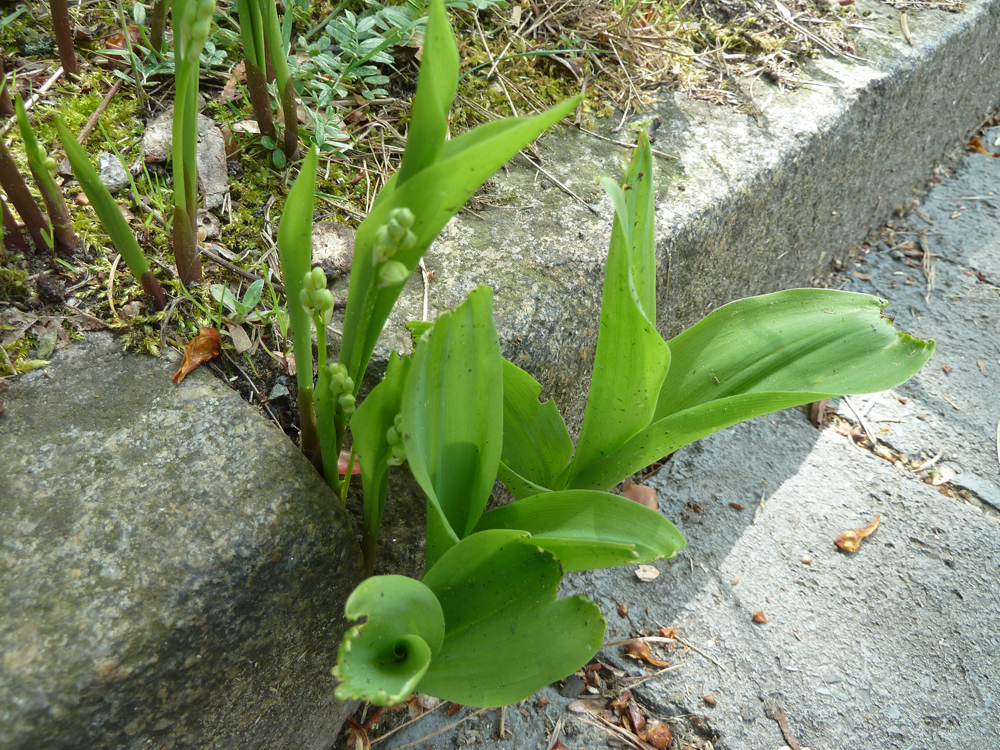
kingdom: Plantae
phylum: Tracheophyta
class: Liliopsida
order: Asparagales
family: Asparagaceae
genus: Convallaria
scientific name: Convallaria majalis
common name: Lily-of-the-valley
